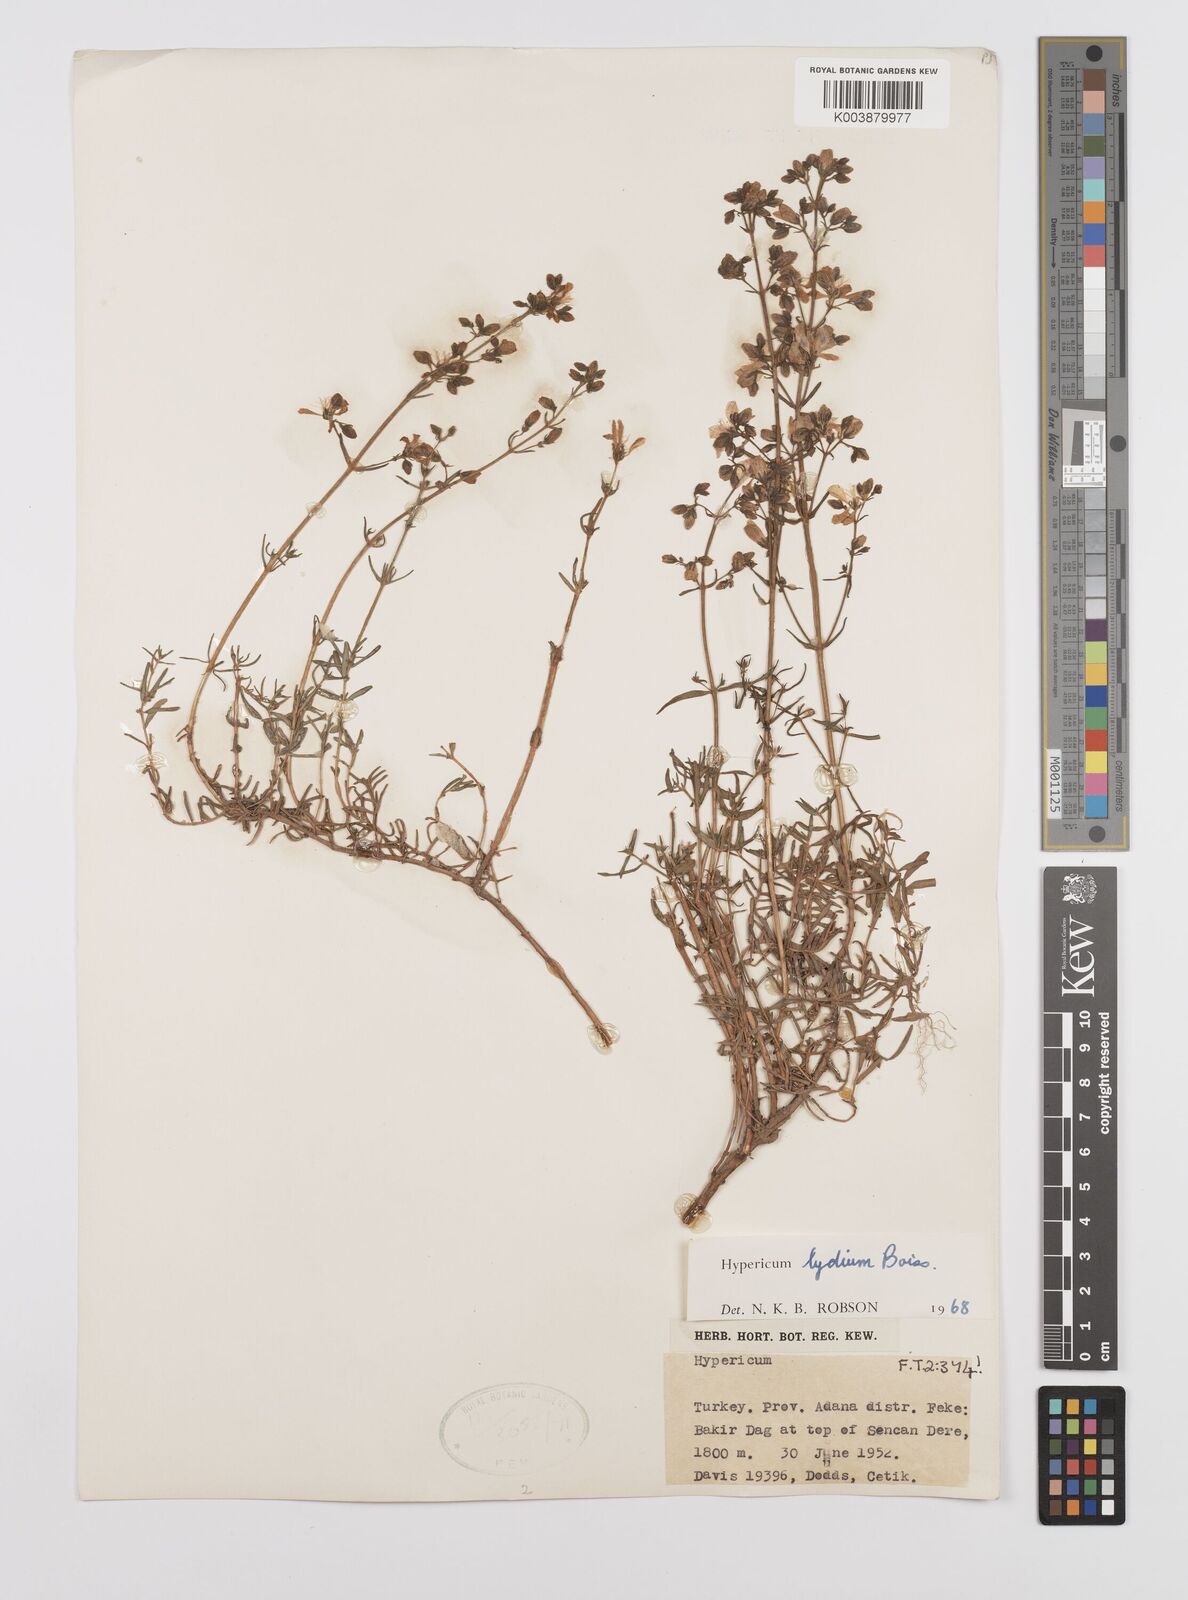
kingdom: Plantae
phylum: Tracheophyta
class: Magnoliopsida
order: Malpighiales
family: Hypericaceae
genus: Hypericum
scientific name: Hypericum lydium
